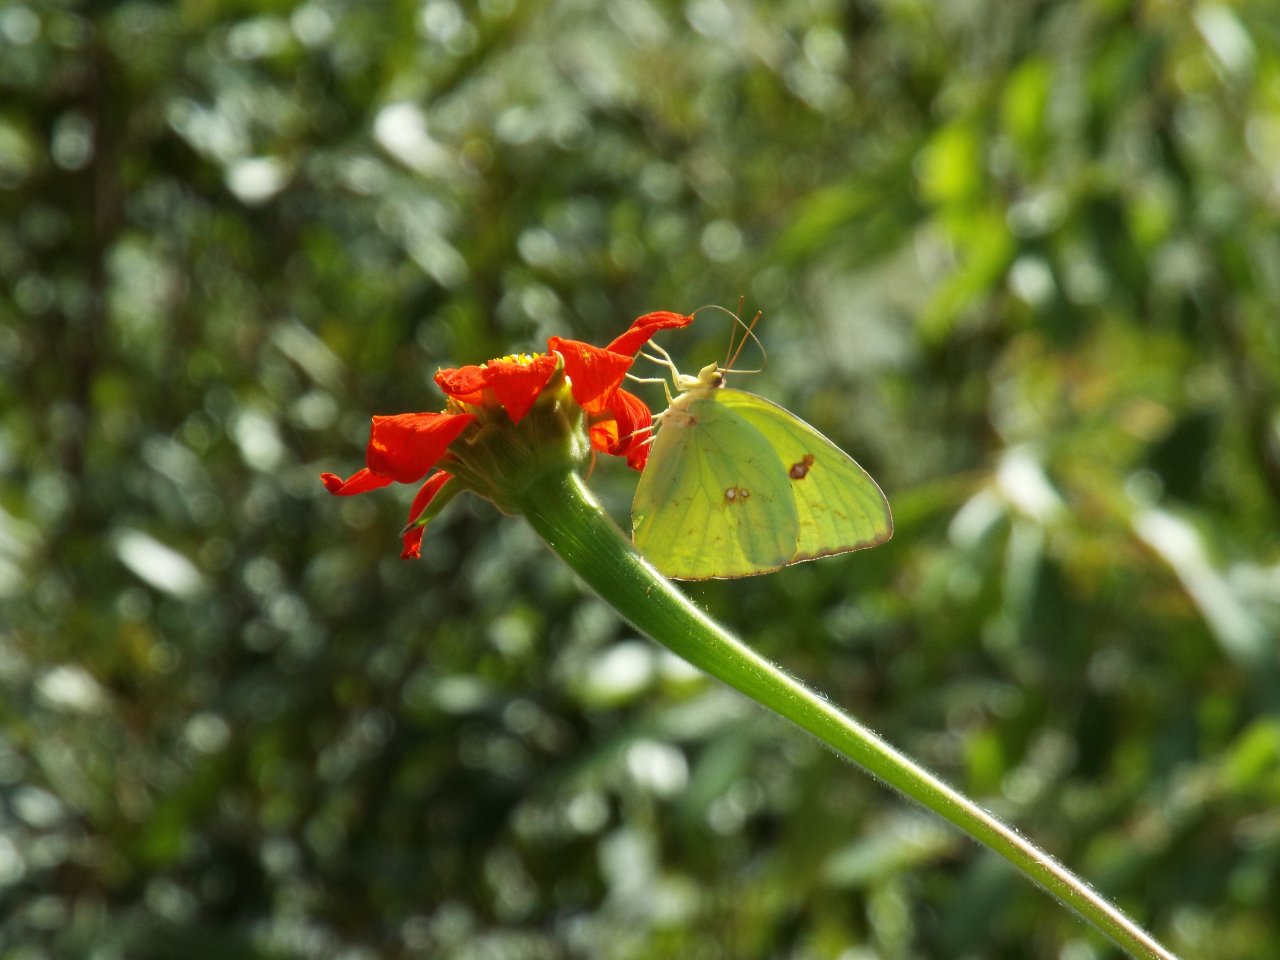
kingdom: Animalia
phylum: Arthropoda
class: Insecta
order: Lepidoptera
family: Pieridae
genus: Phoebis
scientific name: Phoebis sennae
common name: Cloudless Sulphur
